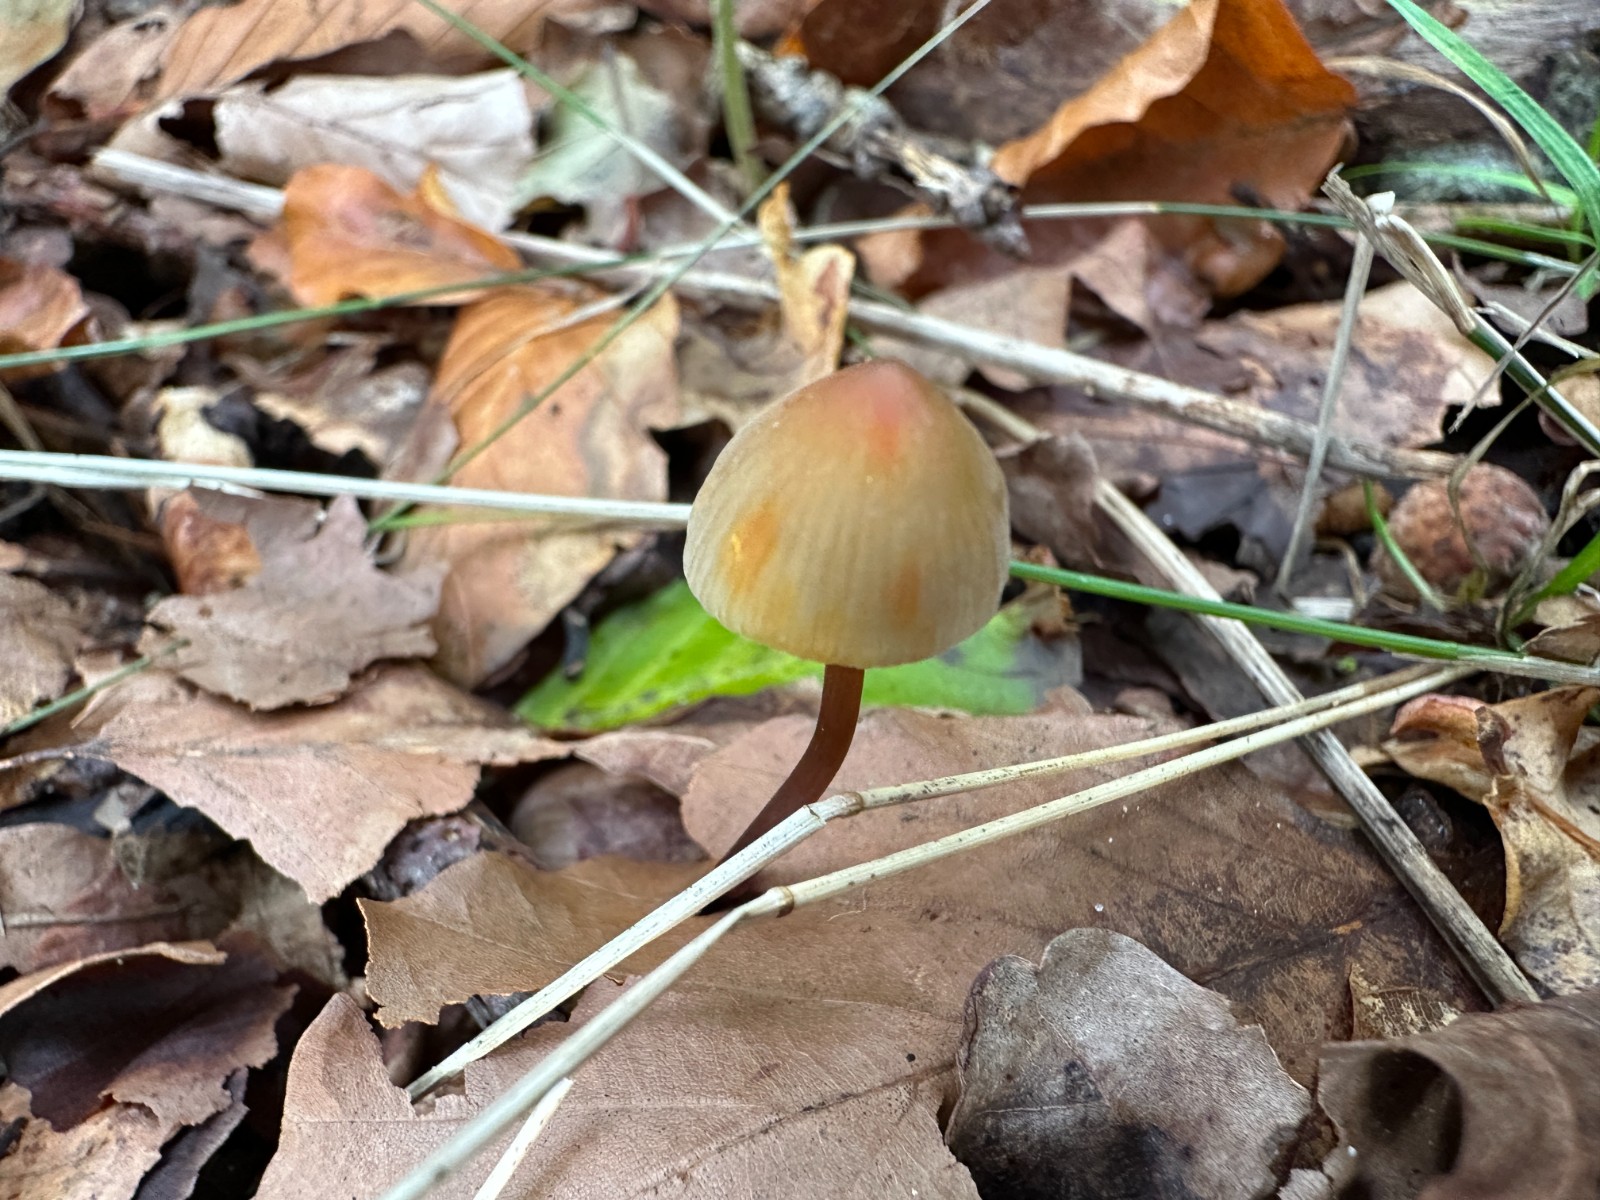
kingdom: Fungi
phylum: Basidiomycota
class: Agaricomycetes
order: Agaricales
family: Mycenaceae
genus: Mycena
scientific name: Mycena crocata
